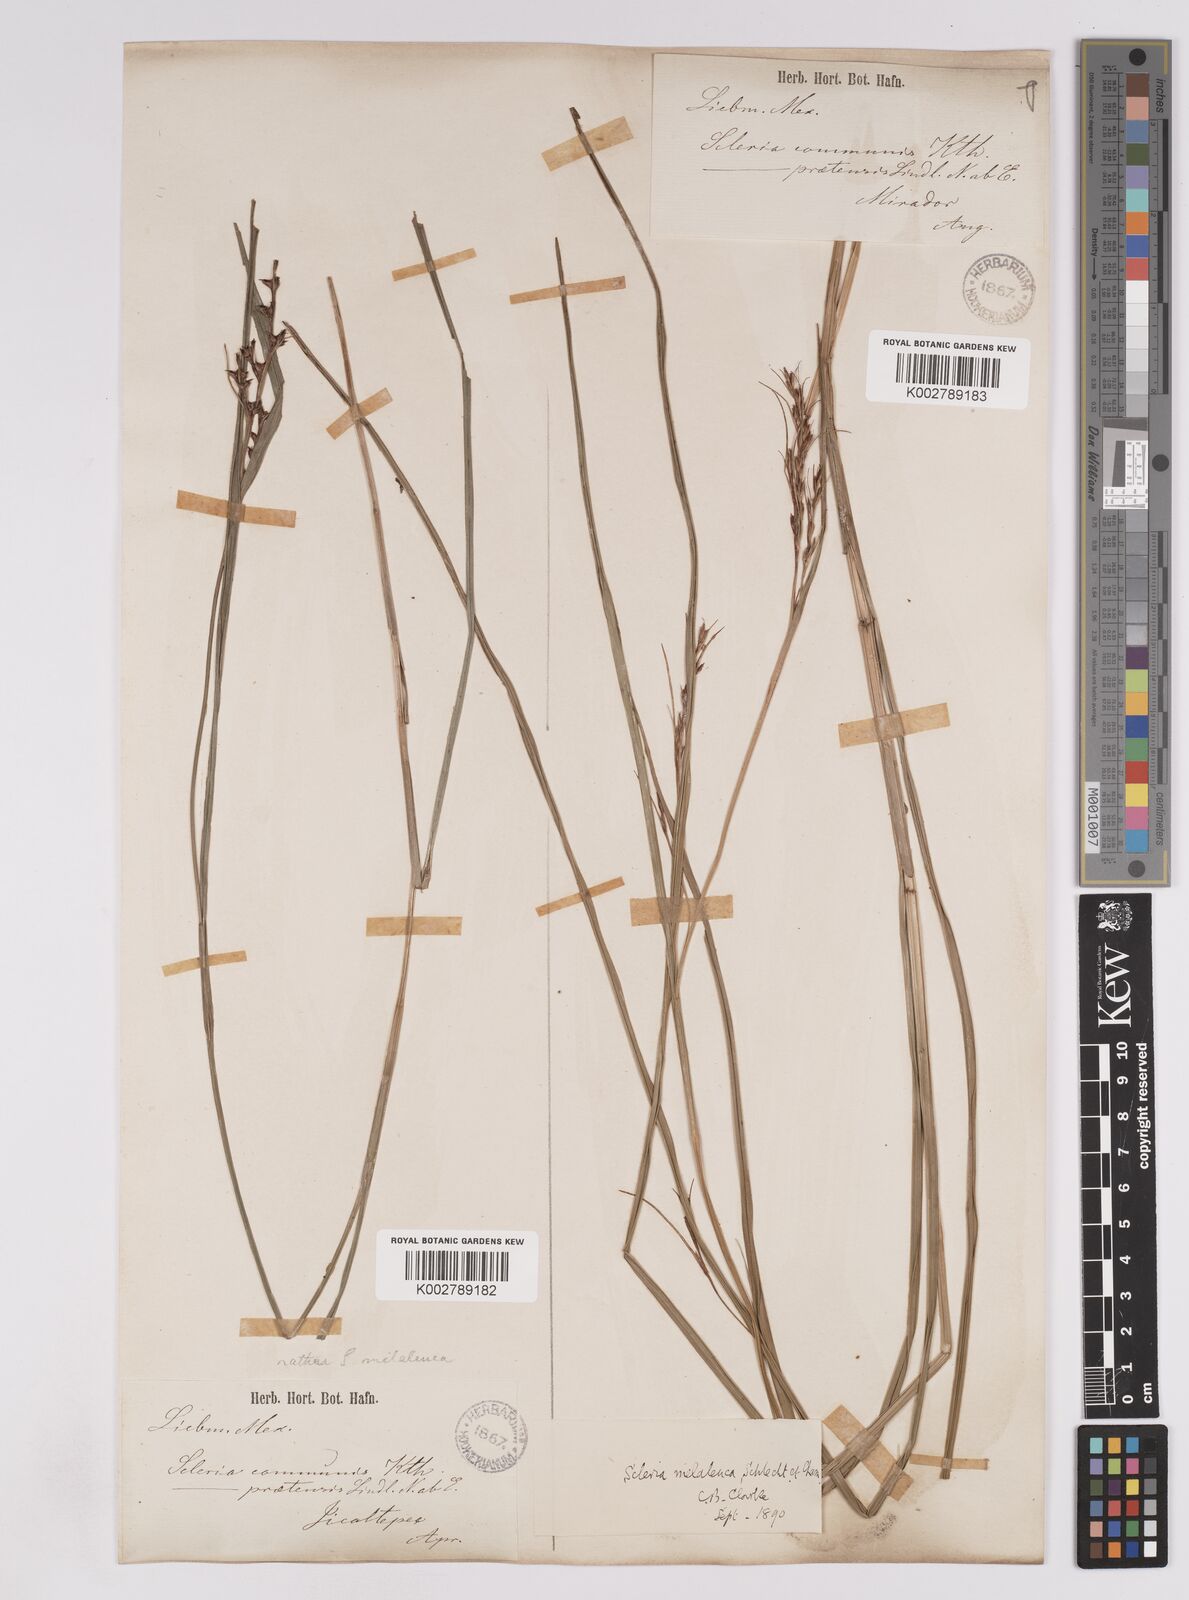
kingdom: Plantae
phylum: Tracheophyta
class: Liliopsida
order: Poales
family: Cyperaceae
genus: Scleria
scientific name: Scleria gaertneri
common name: Cortadera blanca
